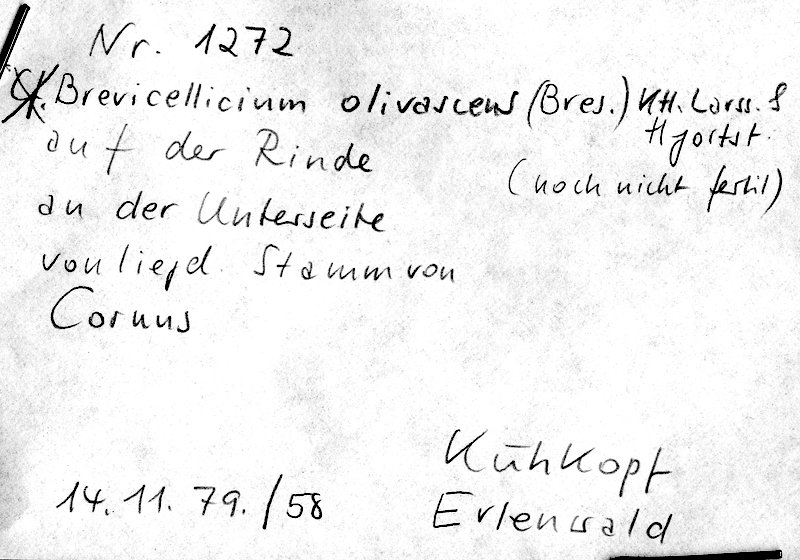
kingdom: Fungi
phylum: Basidiomycota
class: Agaricomycetes
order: Trechisporales
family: Hydnodontaceae
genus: Brevicellicium
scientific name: Brevicellicium olivascens
